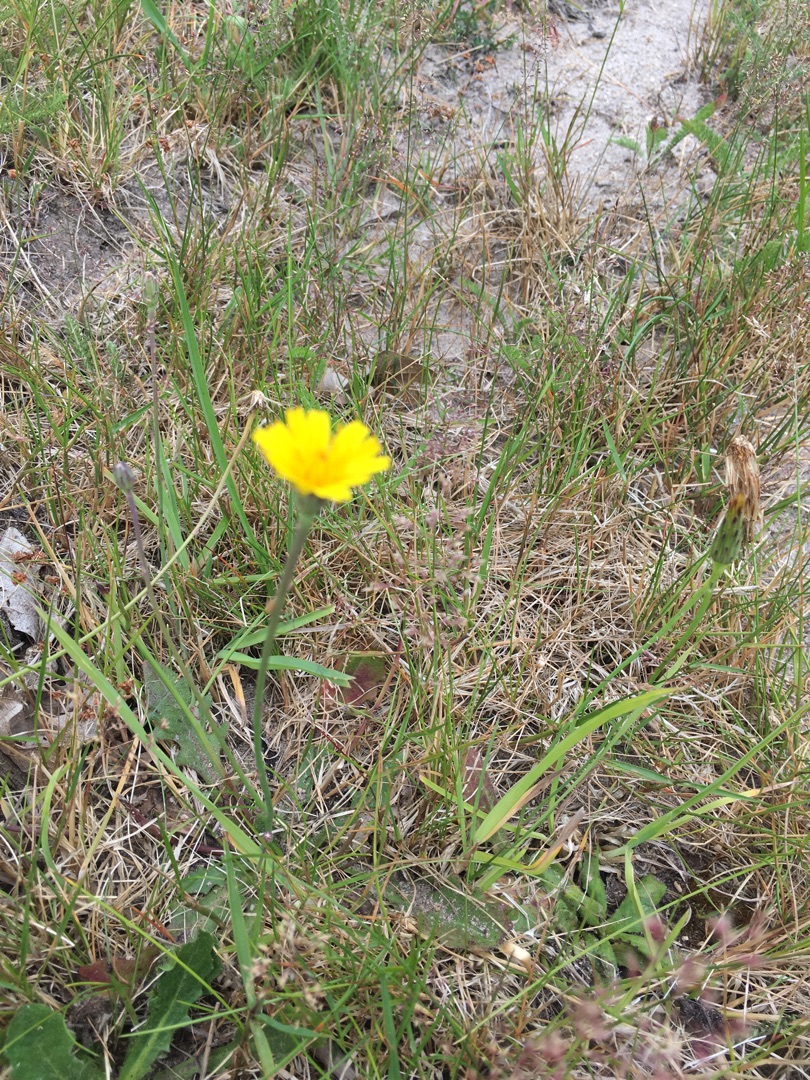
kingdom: Plantae
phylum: Tracheophyta
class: Magnoliopsida
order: Asterales
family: Asteraceae
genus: Hypochaeris
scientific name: Hypochaeris radicata
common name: Almindelig kongepen
